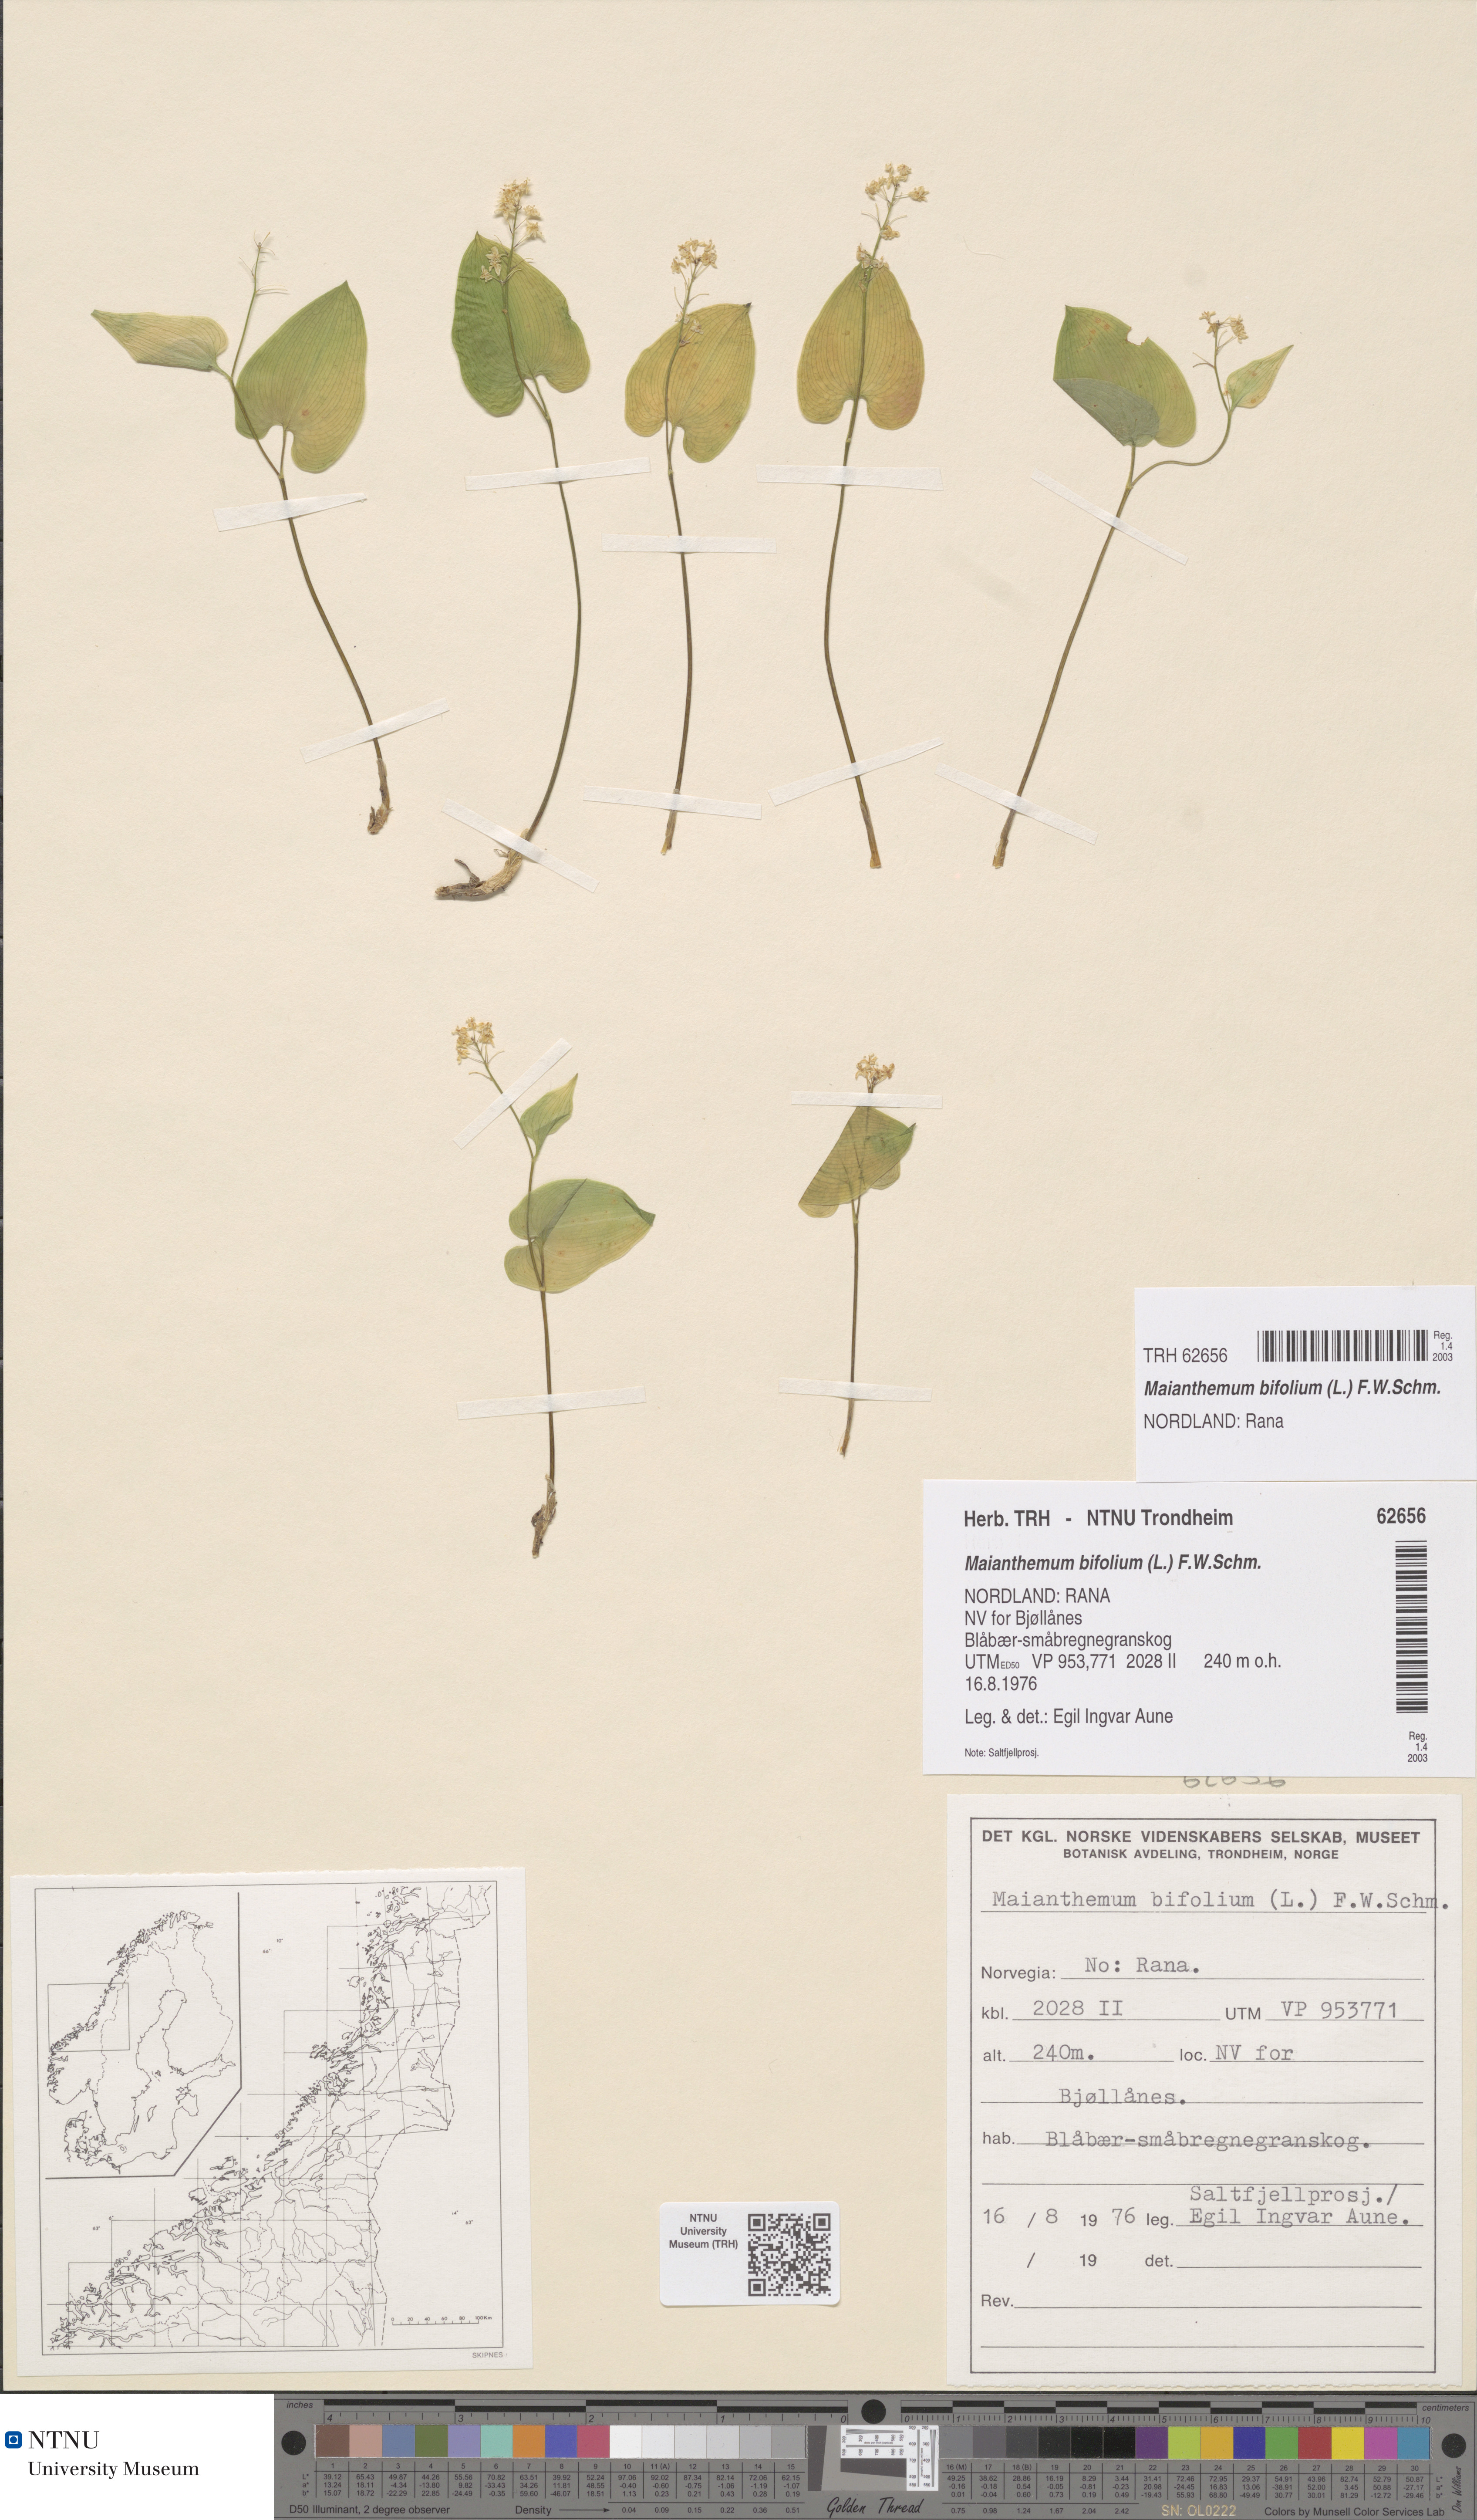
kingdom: Plantae
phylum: Tracheophyta
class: Liliopsida
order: Asparagales
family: Asparagaceae
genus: Maianthemum
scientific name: Maianthemum bifolium
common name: May lily
